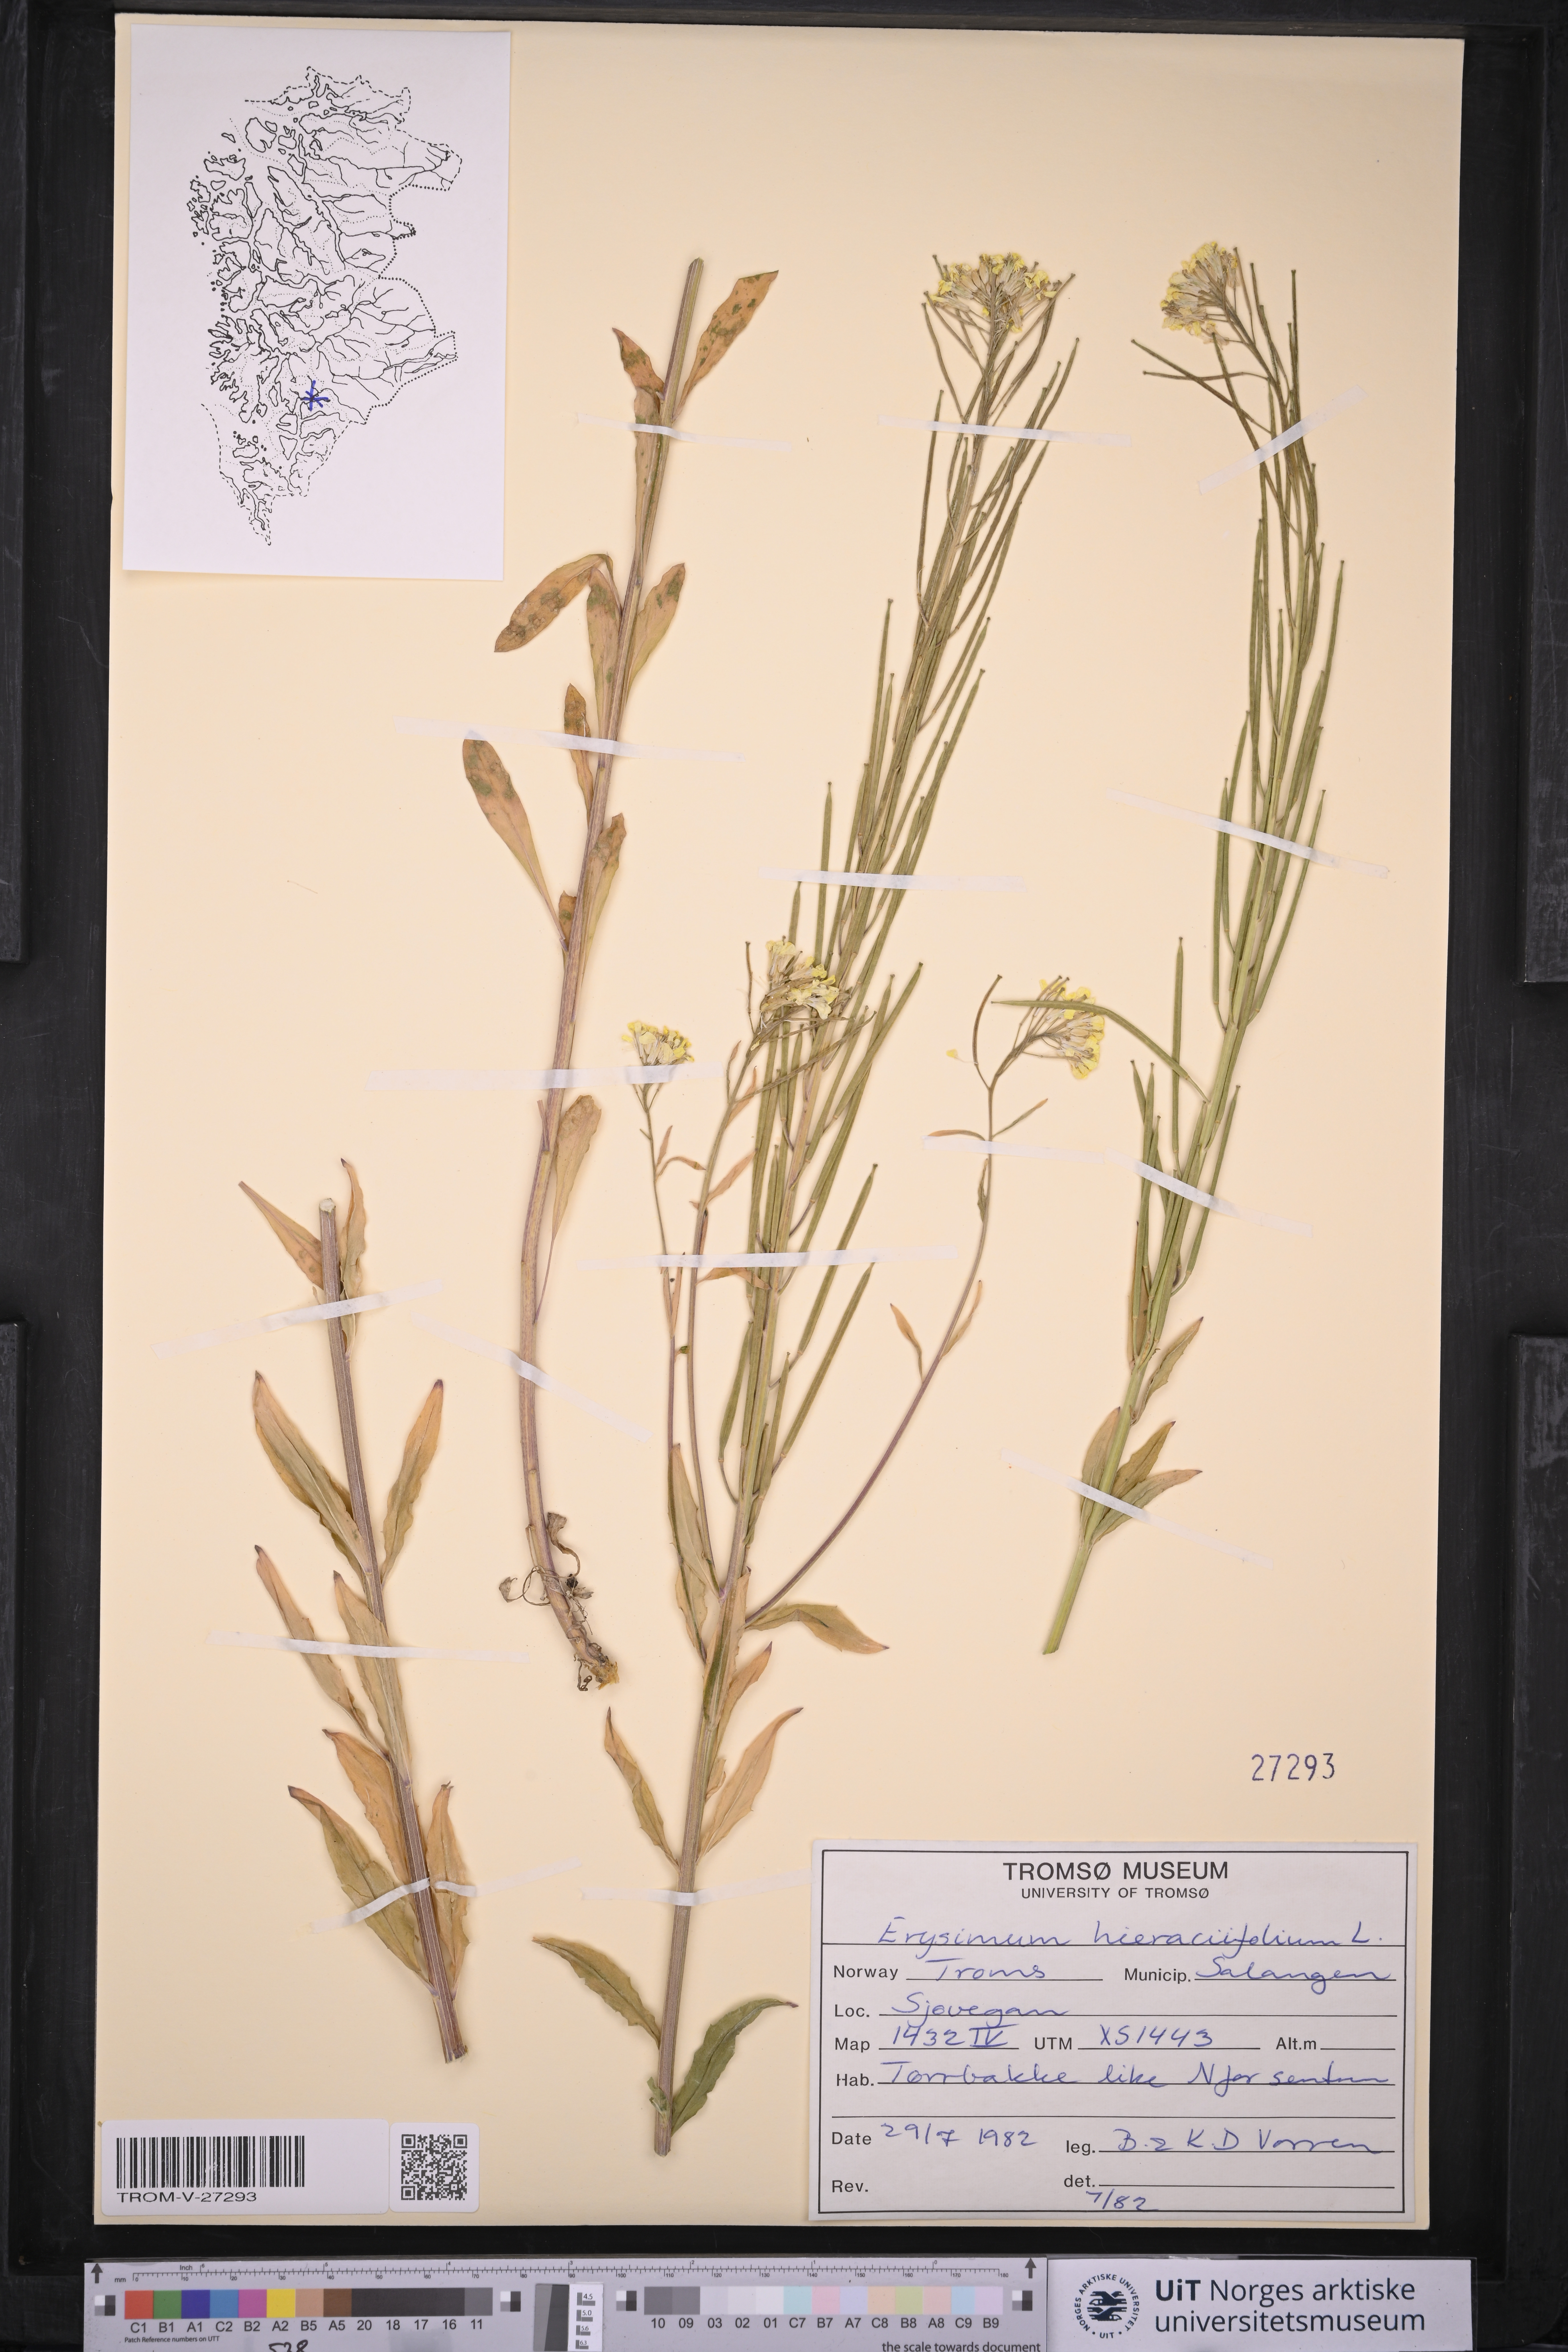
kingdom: Plantae
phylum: Tracheophyta
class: Magnoliopsida
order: Brassicales
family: Brassicaceae
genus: Erysimum
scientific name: Erysimum virgatum
